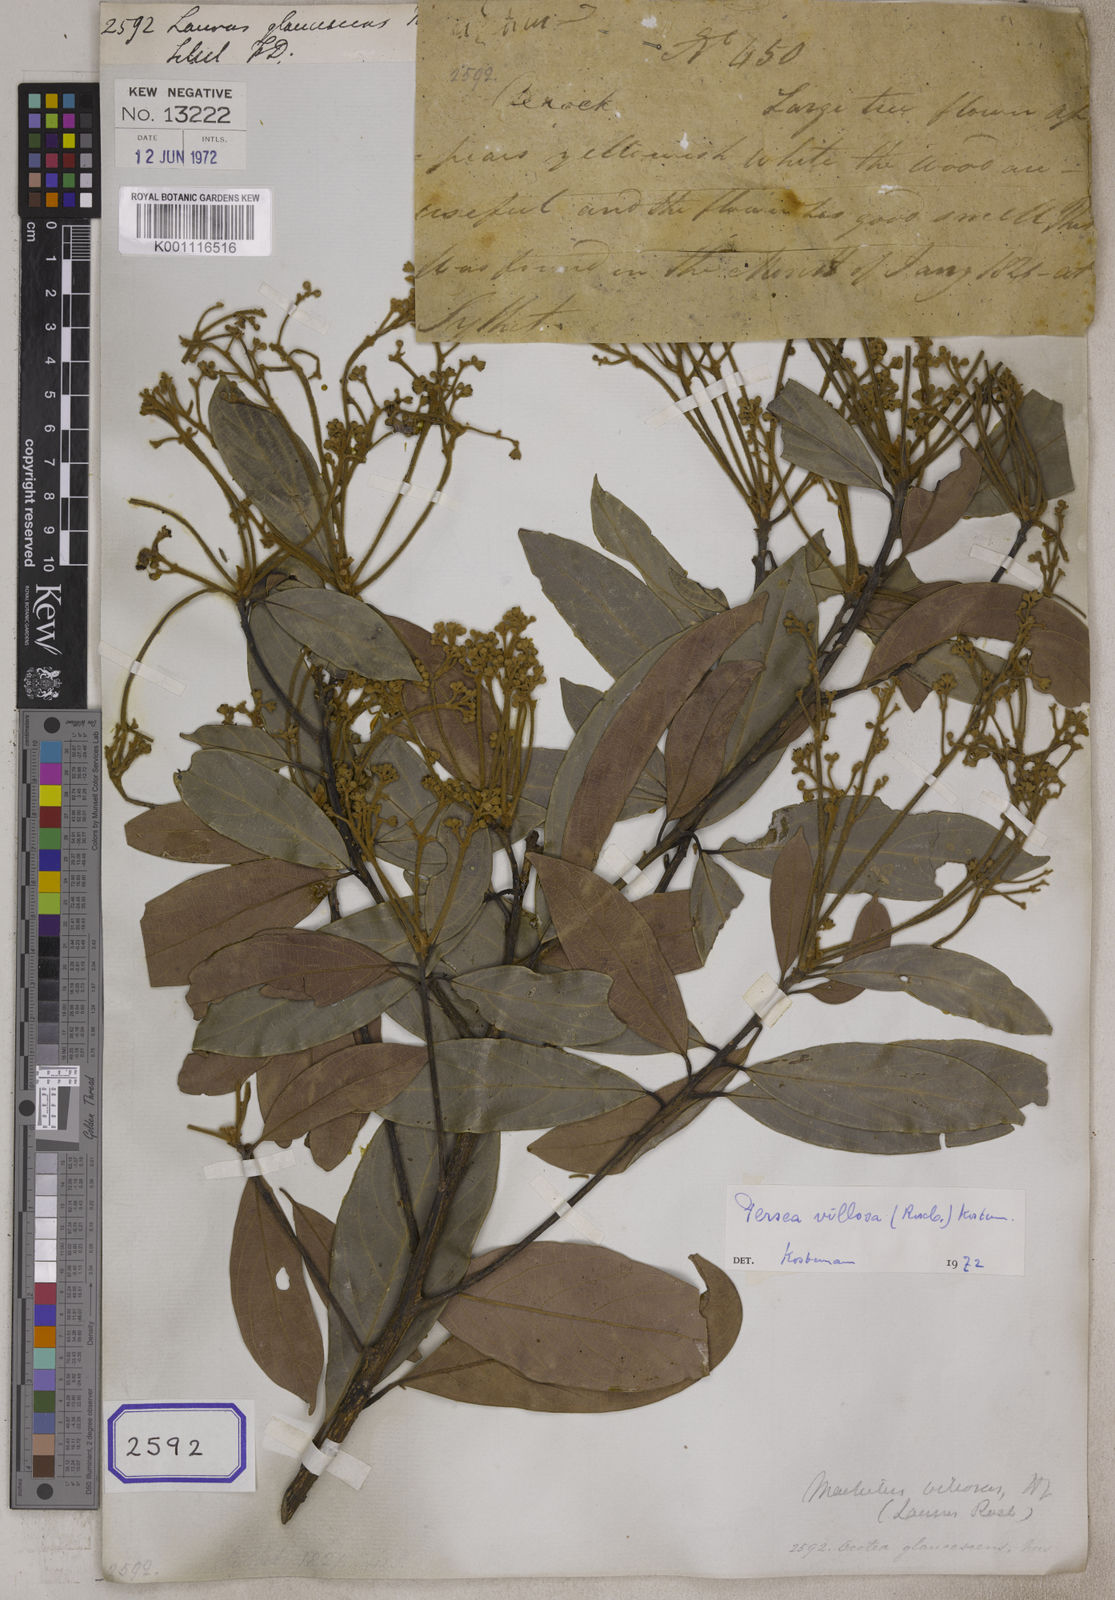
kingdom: Plantae
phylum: Tracheophyta
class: Magnoliopsida
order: Laurales
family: Lauraceae
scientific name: Lauraceae
